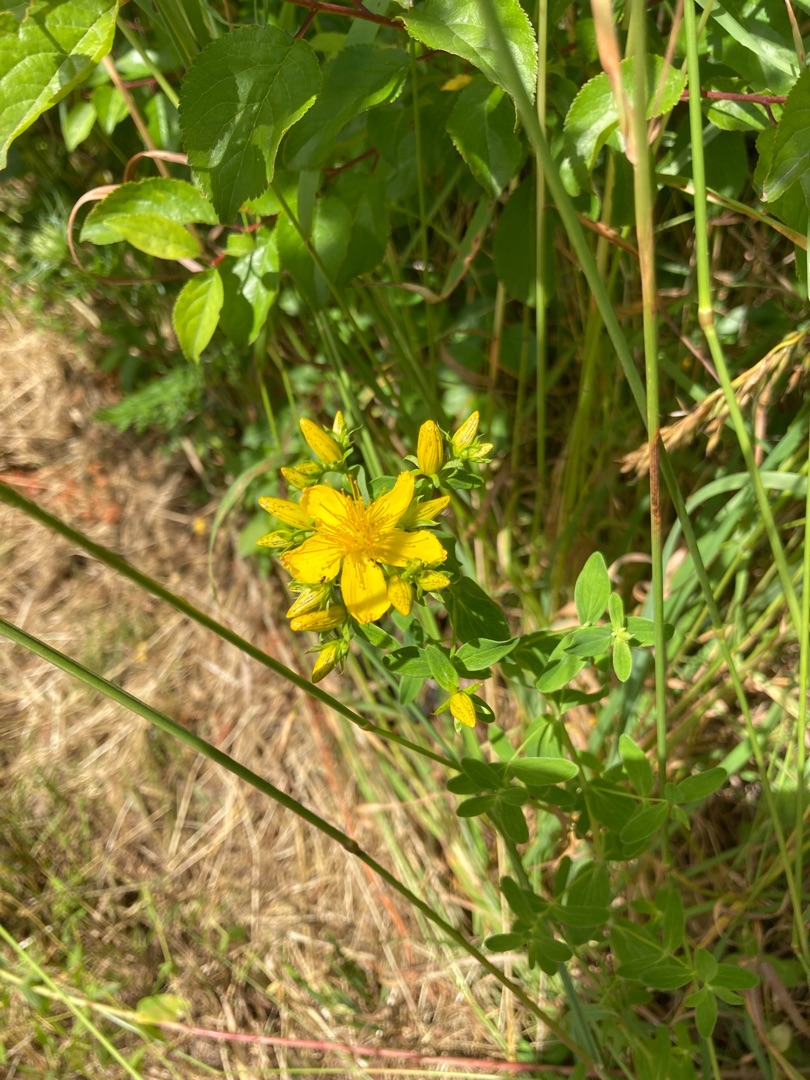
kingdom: Plantae
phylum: Tracheophyta
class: Magnoliopsida
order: Malpighiales
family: Hypericaceae
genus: Hypericum
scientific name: Hypericum perforatum
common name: Prikbladet perikon
